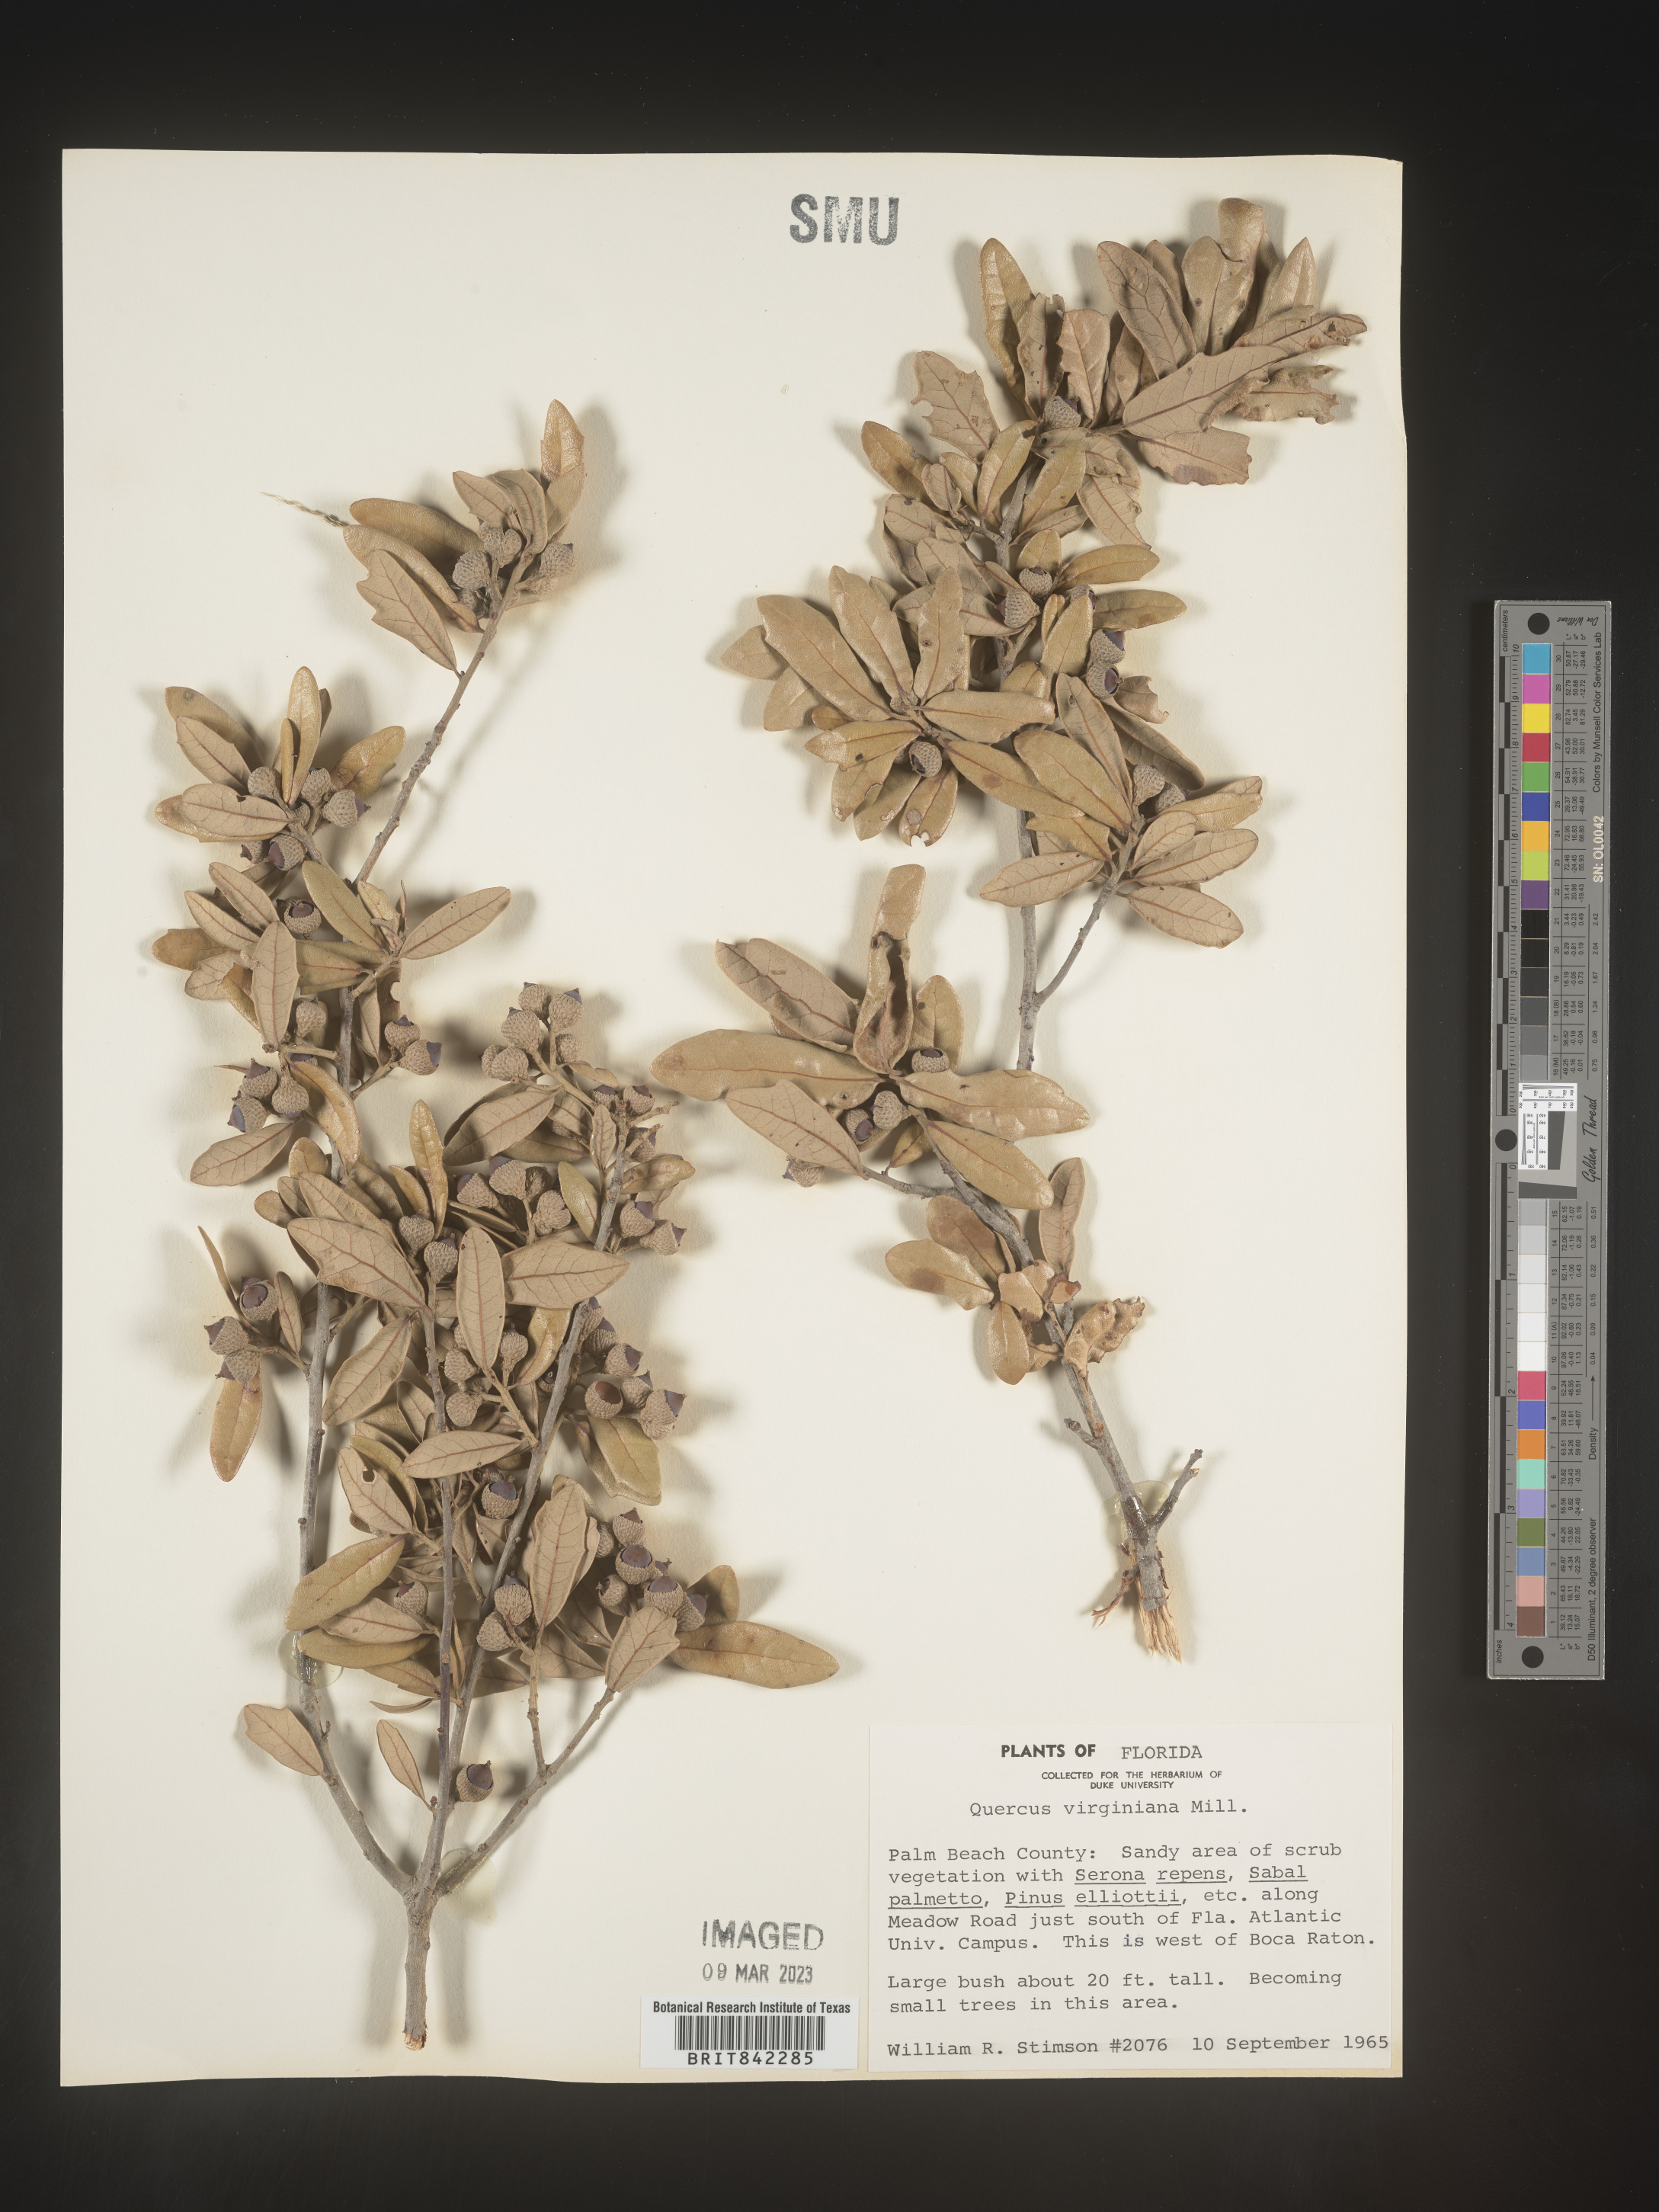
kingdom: Plantae
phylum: Tracheophyta
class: Magnoliopsida
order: Fagales
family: Fagaceae
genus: Quercus
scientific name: Quercus virginiana
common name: Southern live oak
